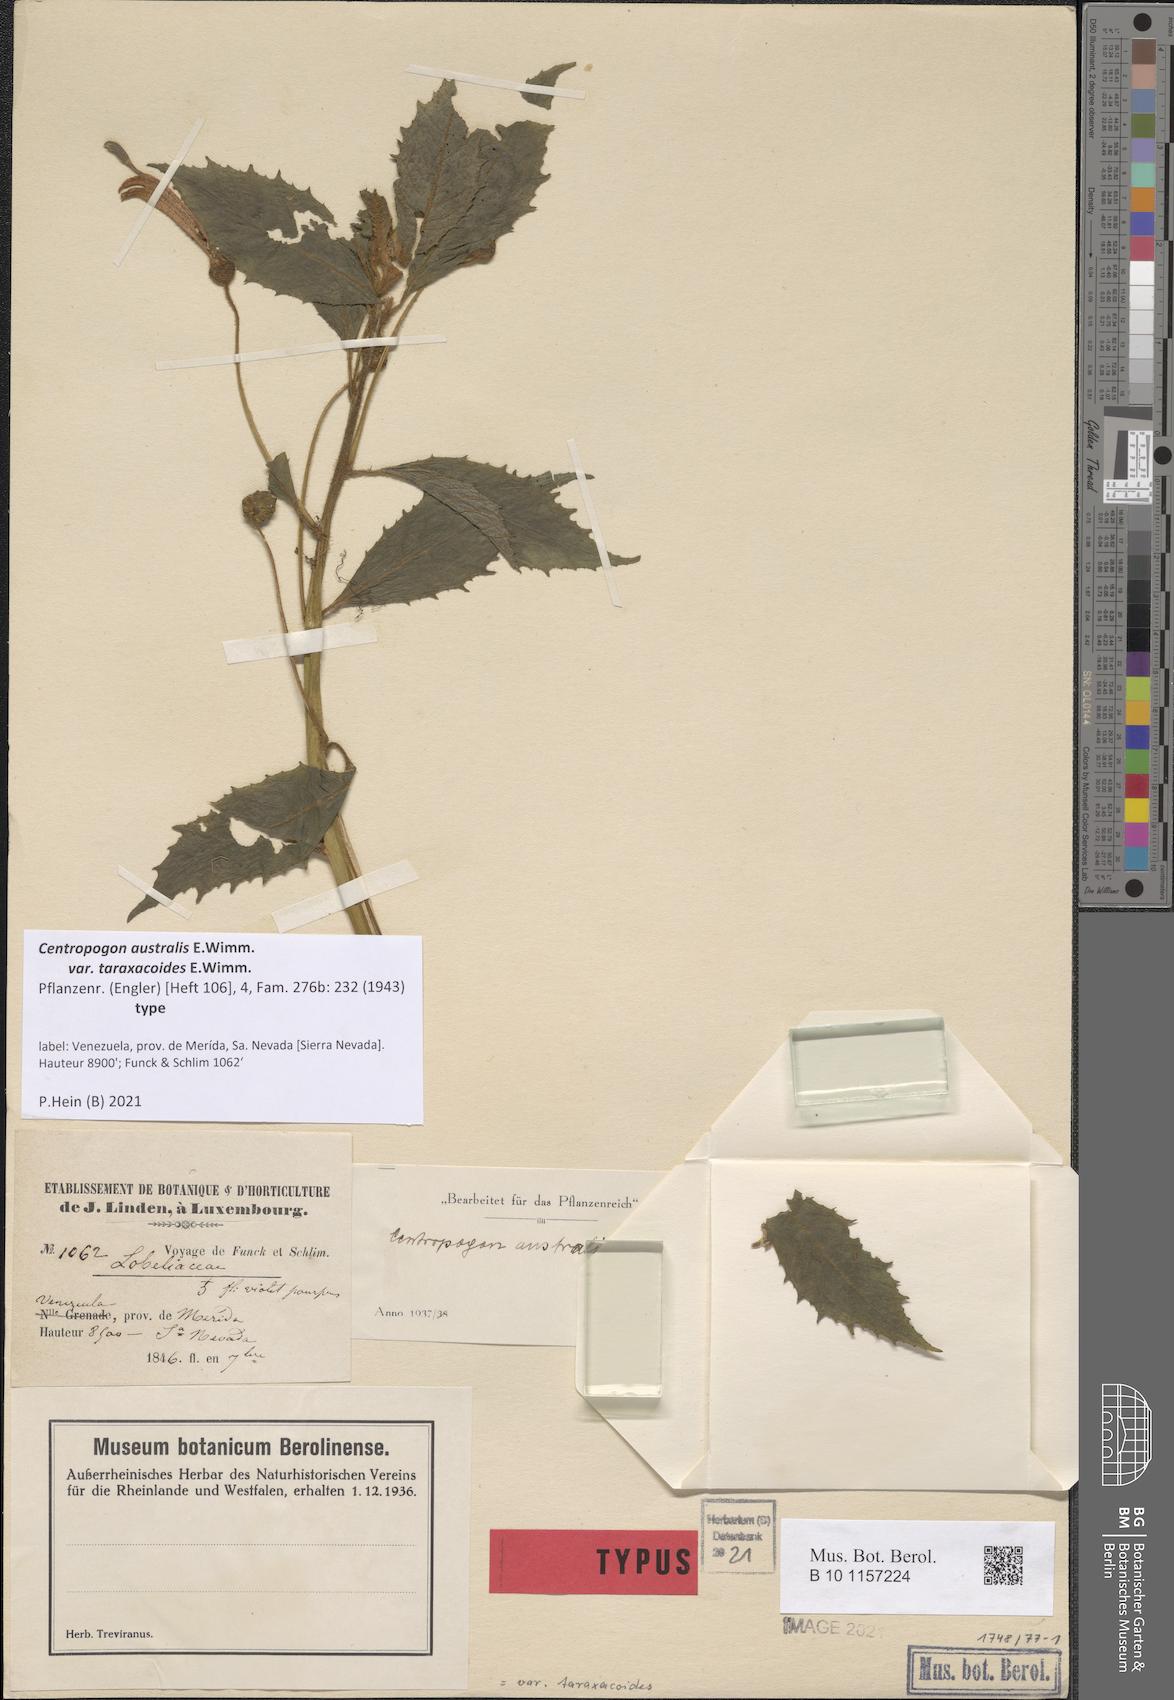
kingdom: Plantae
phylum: Tracheophyta
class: Magnoliopsida
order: Asterales
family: Campanulaceae
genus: Centropogon
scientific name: Centropogon australis
